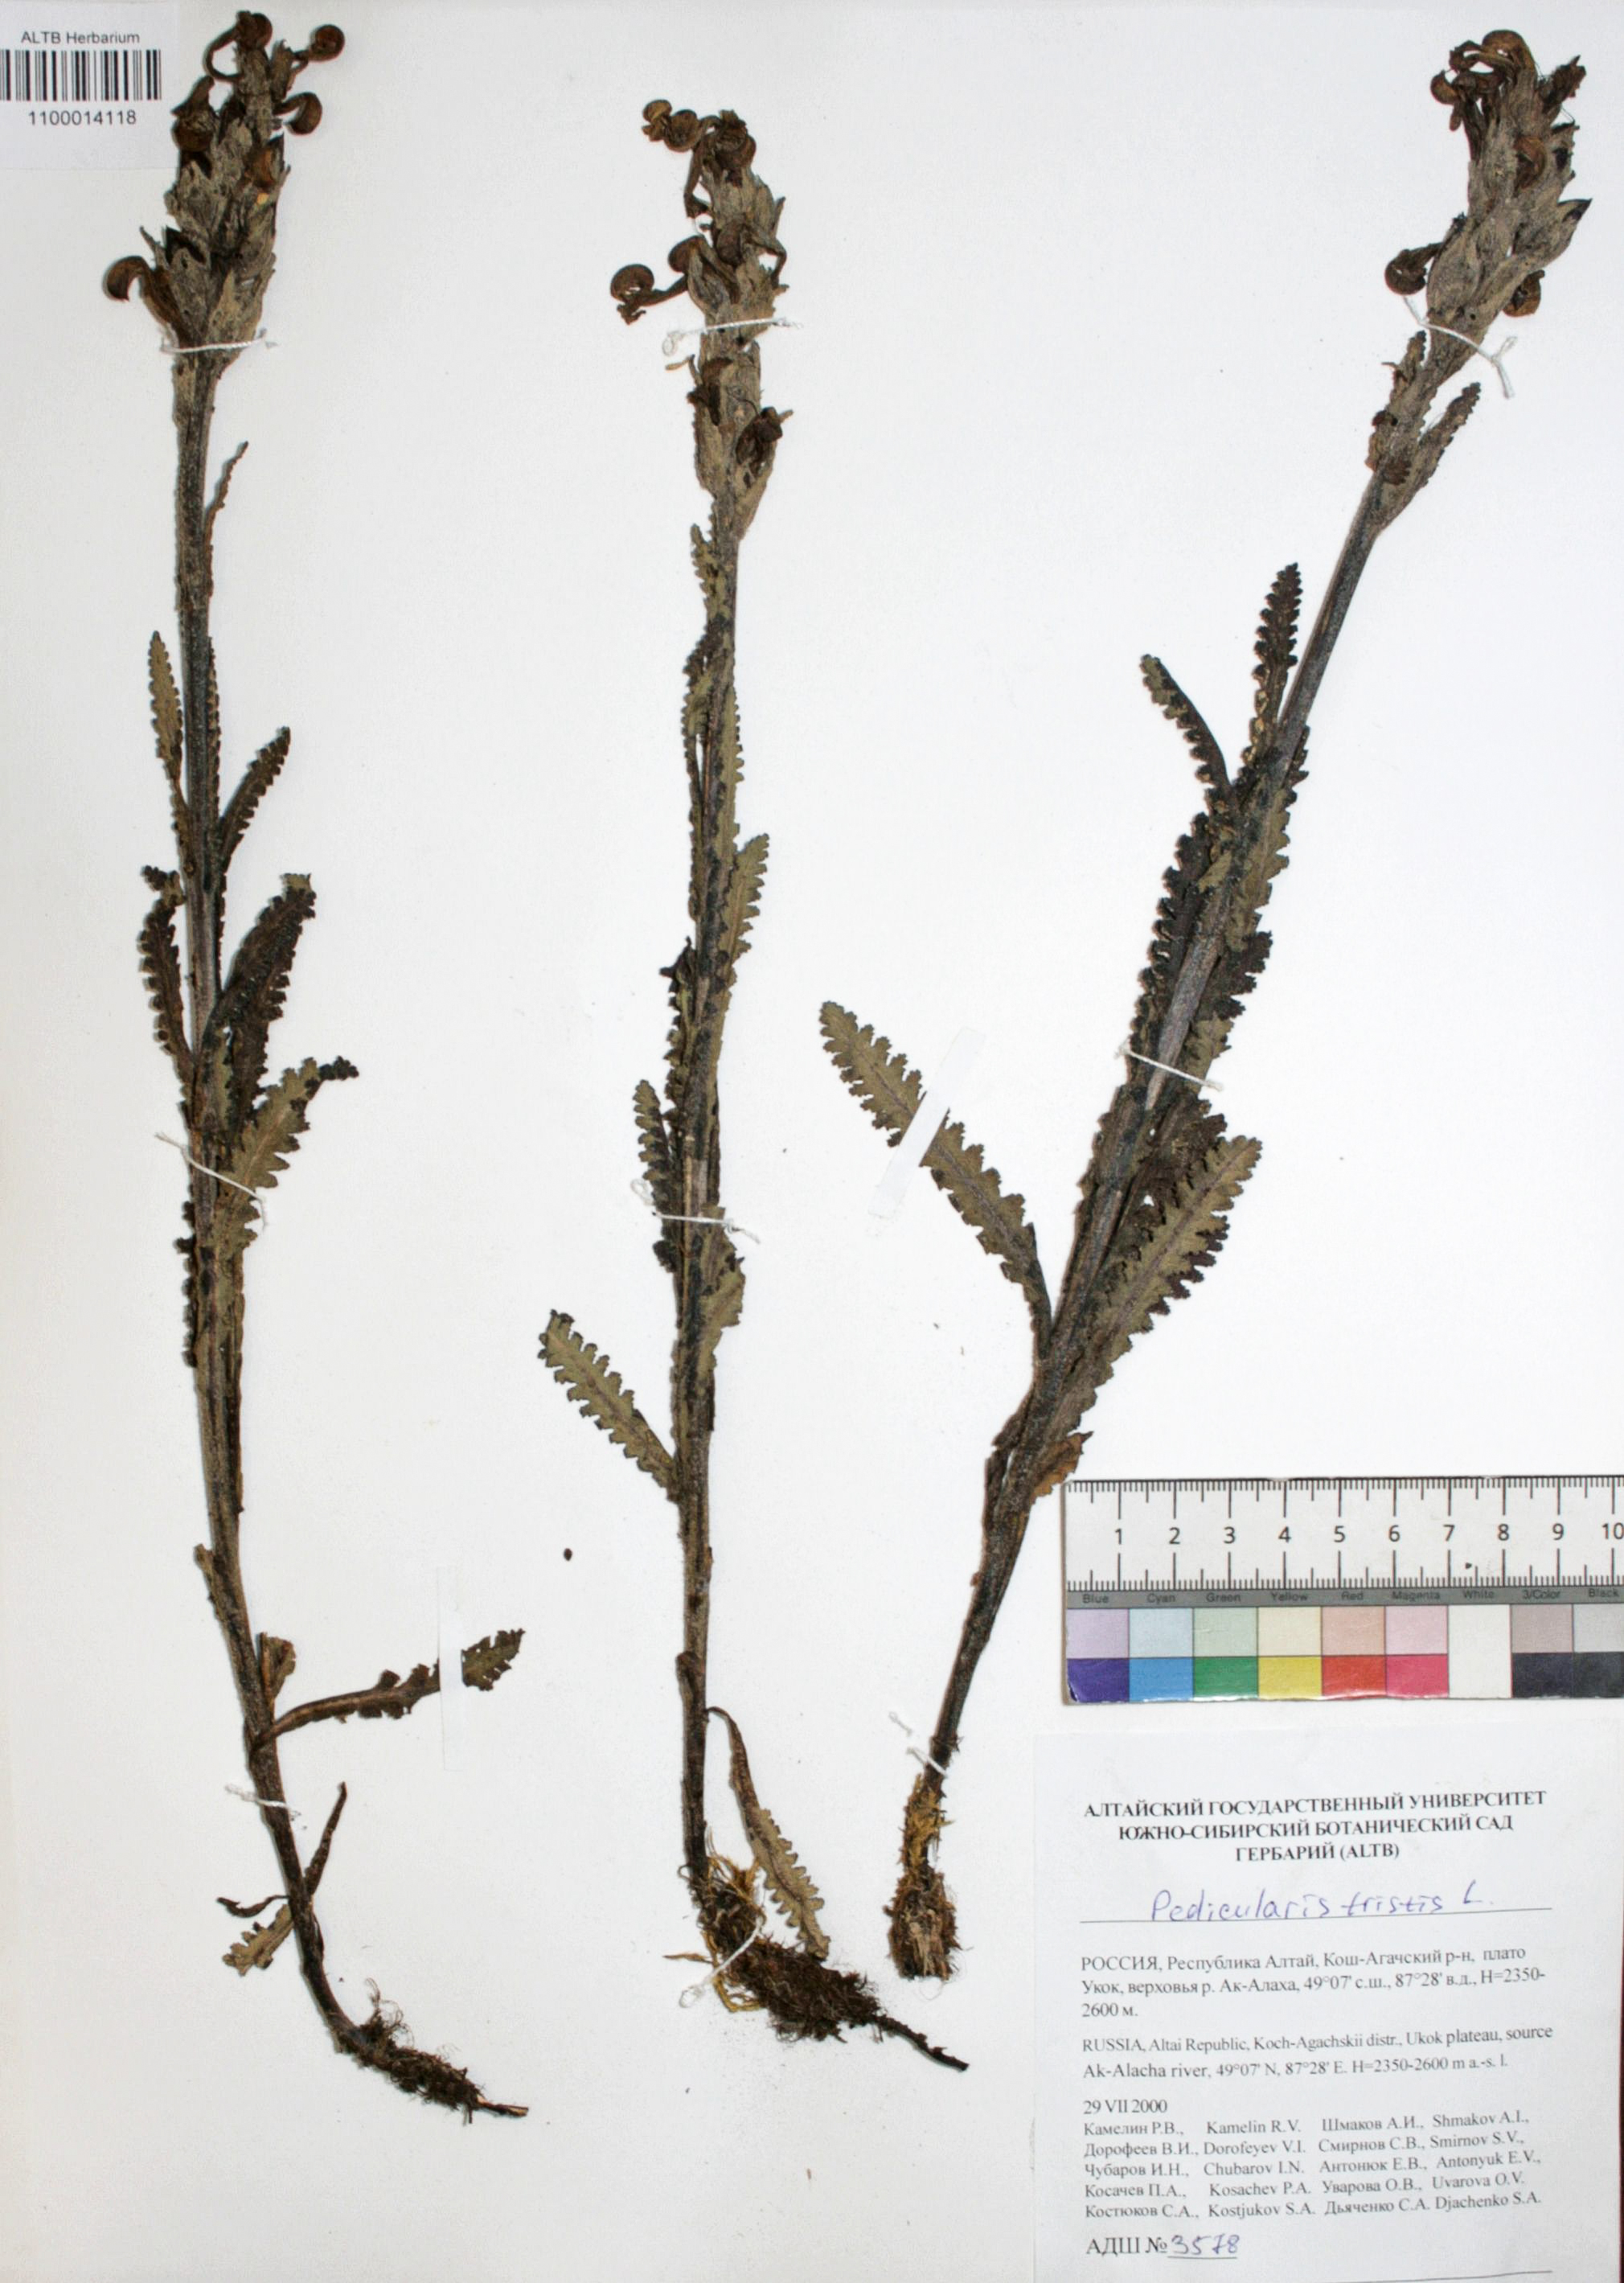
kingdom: Plantae
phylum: Tracheophyta
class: Magnoliopsida
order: Lamiales
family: Orobanchaceae
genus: Pedicularis
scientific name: Pedicularis tristis
